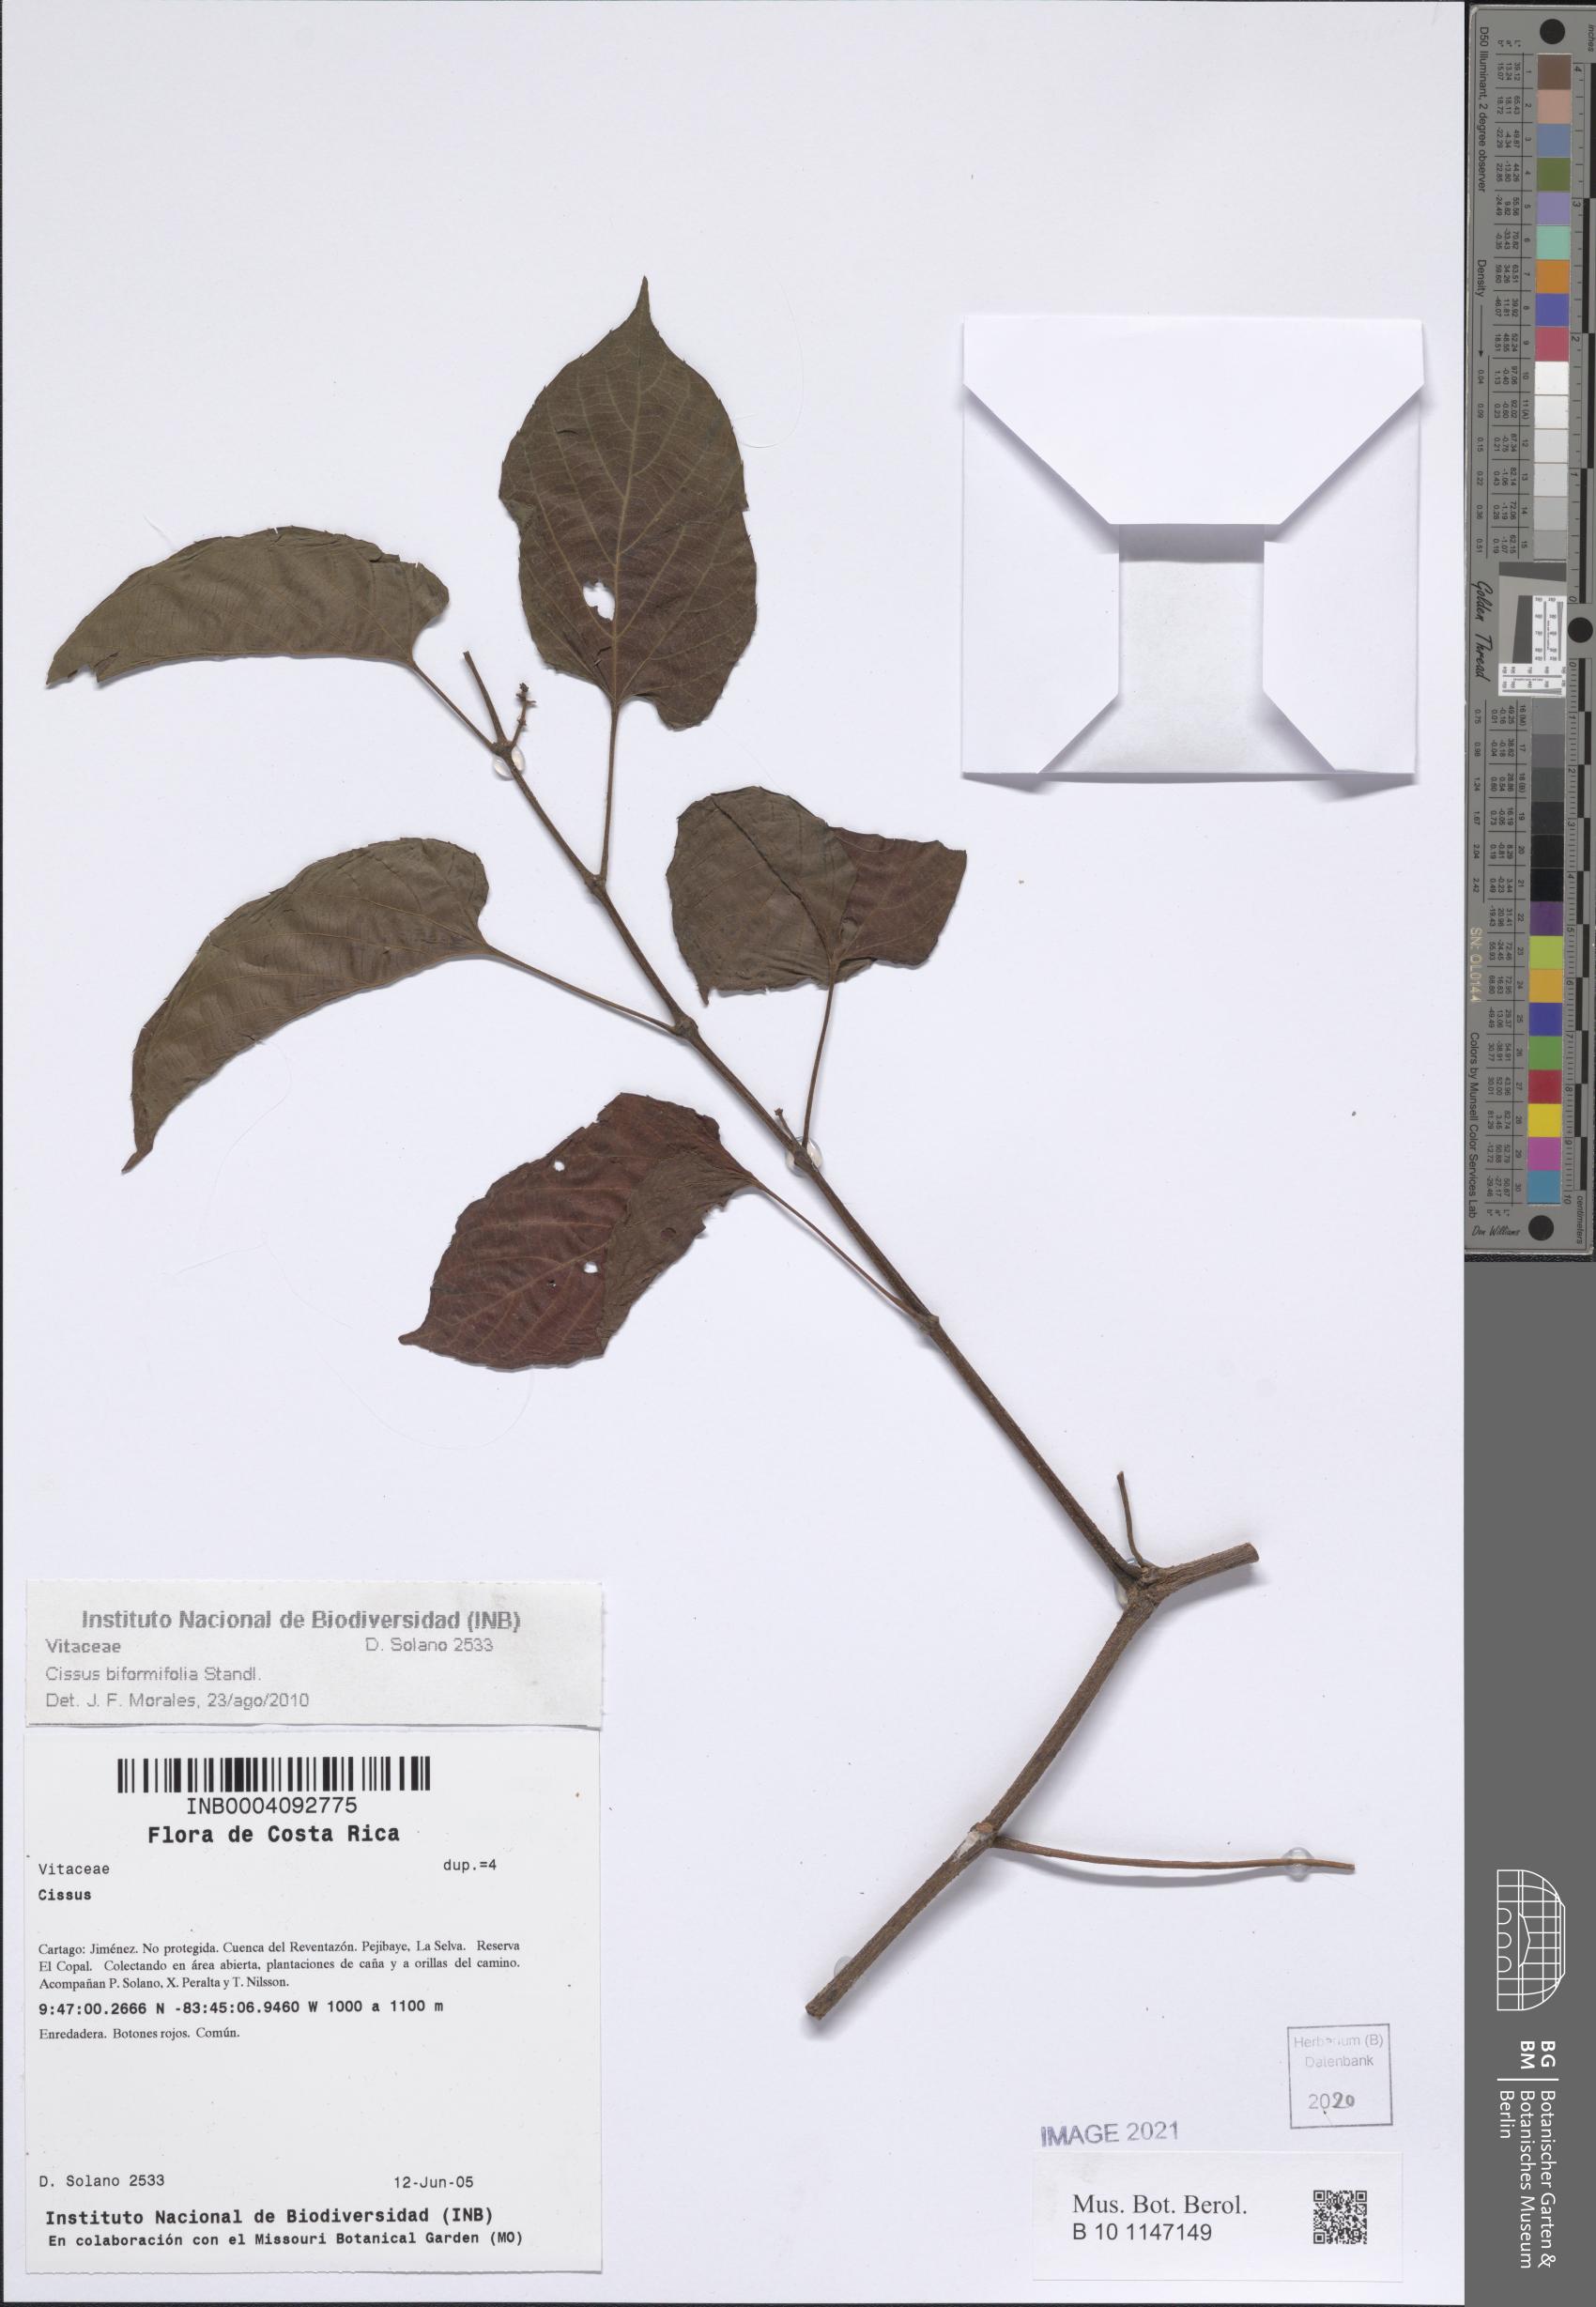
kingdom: Plantae
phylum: Tracheophyta
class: Magnoliopsida
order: Vitales
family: Vitaceae
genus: Cissus
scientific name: Cissus biformifolia
